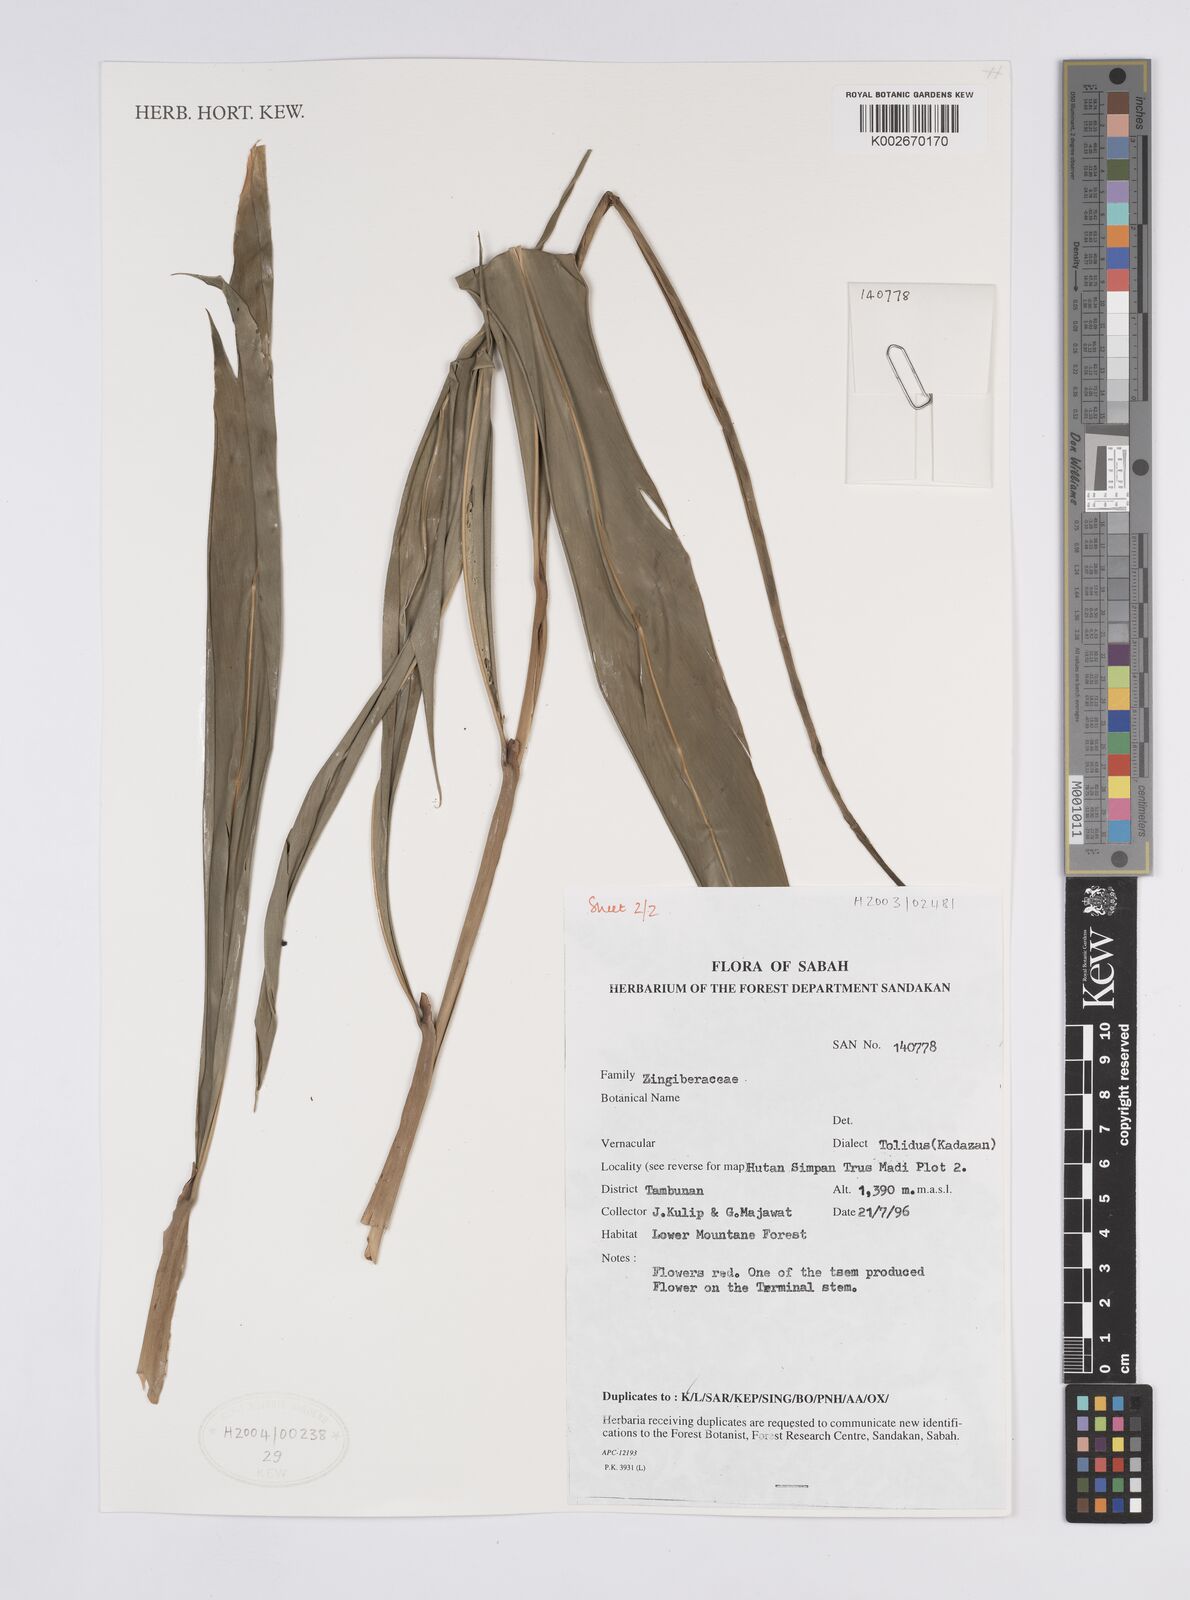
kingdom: Plantae
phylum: Tracheophyta
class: Liliopsida
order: Zingiberales
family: Zingiberaceae
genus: Hornstedtia
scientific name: Hornstedtia gracilis
